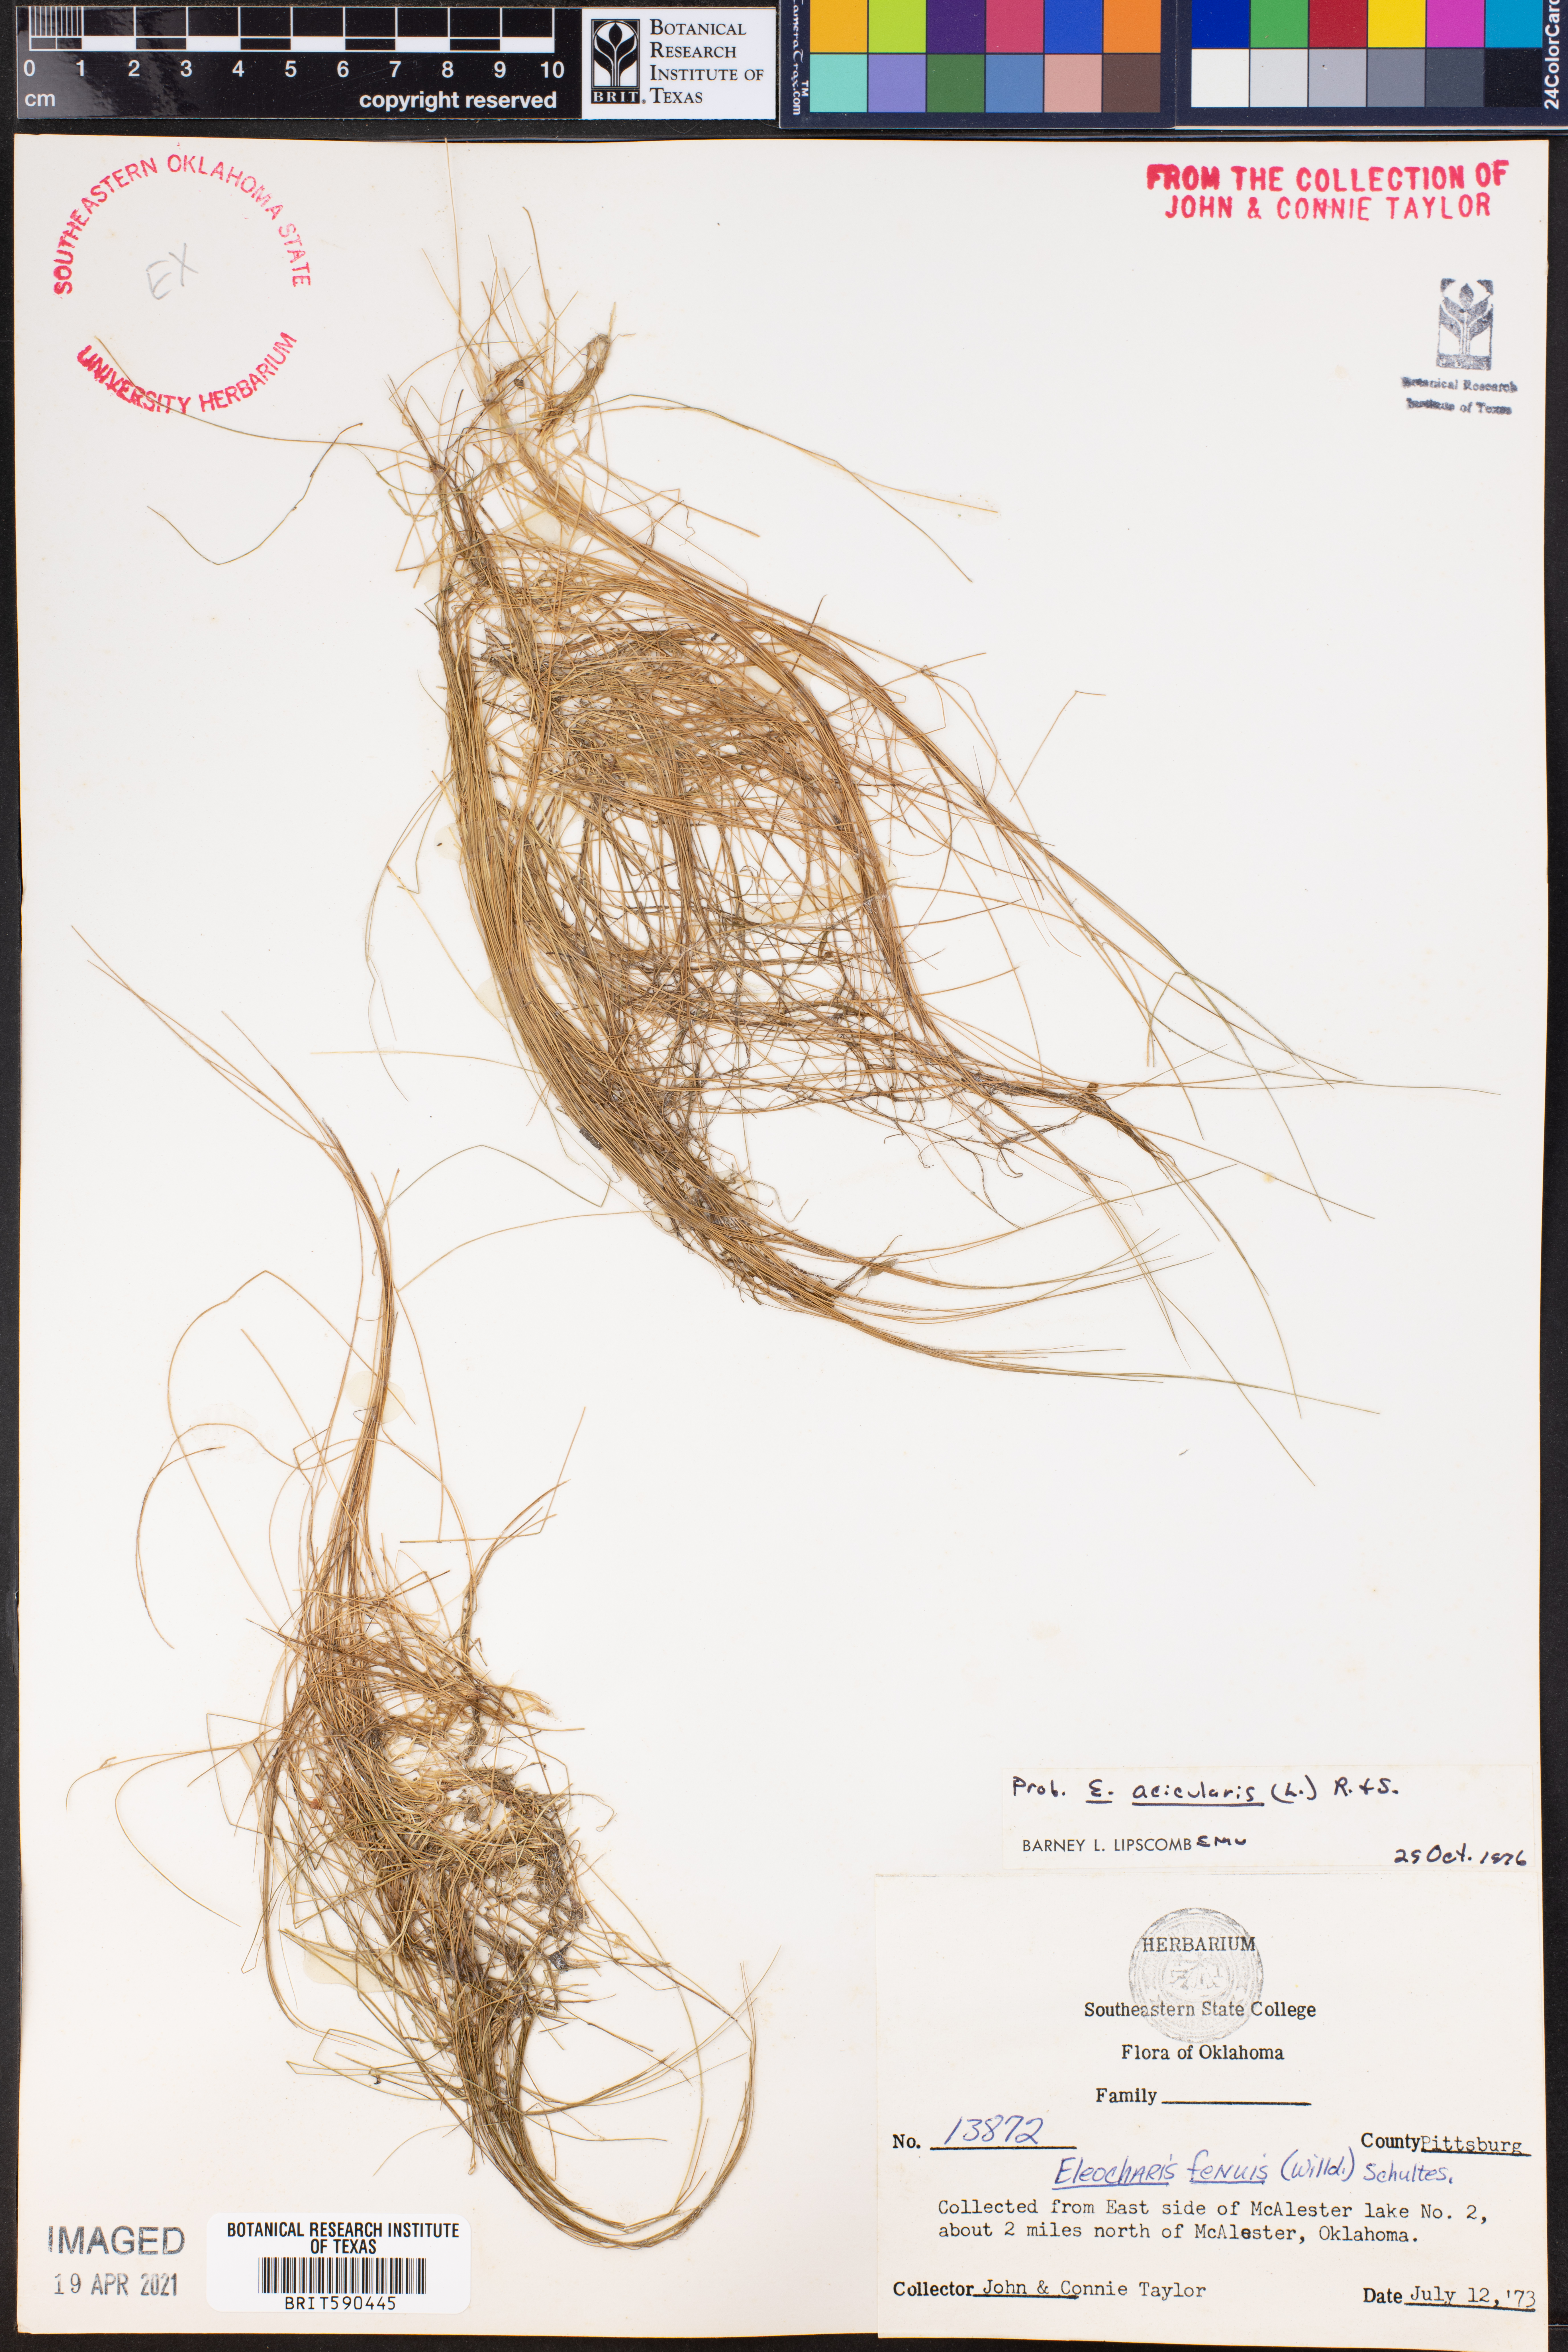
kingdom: Plantae
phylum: Tracheophyta
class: Liliopsida
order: Poales
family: Cyperaceae
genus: Eleocharis
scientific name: Eleocharis acicularis
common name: Needle spike-rush
